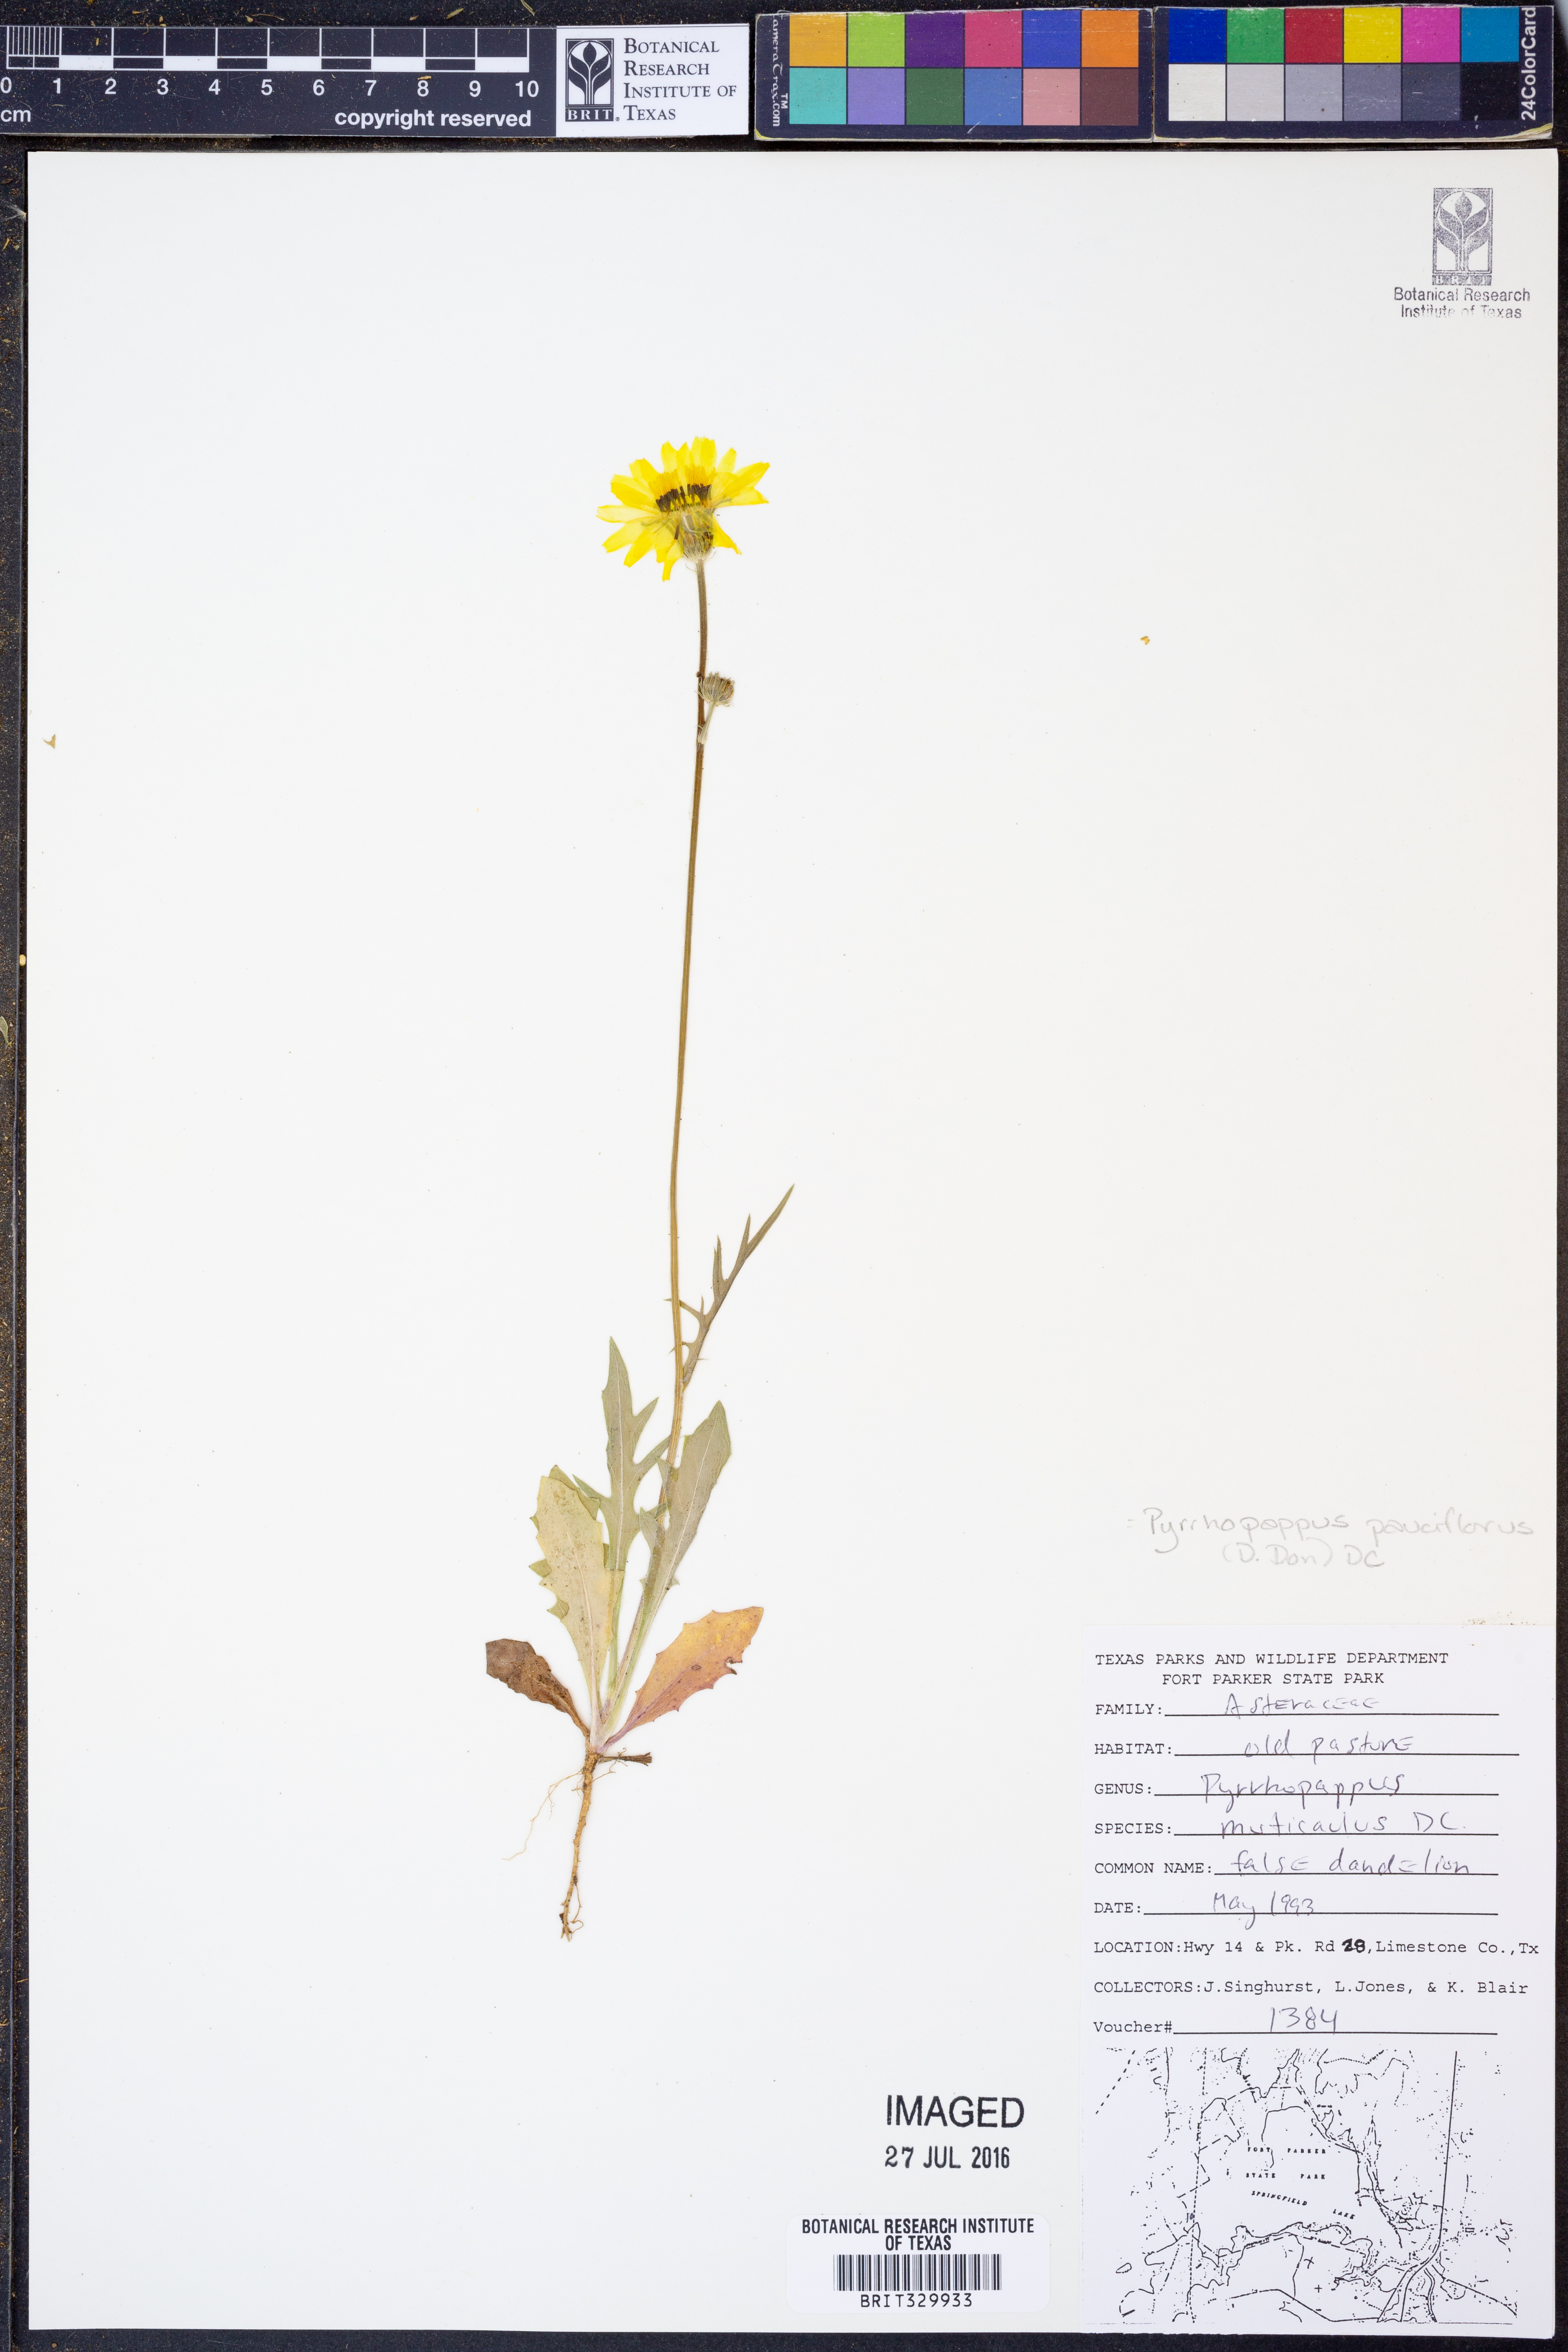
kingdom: Plantae
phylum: Tracheophyta
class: Magnoliopsida
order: Asterales
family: Asteraceae
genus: Pyrrhopappus
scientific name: Pyrrhopappus pauciflorus
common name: Texas false dandelion
